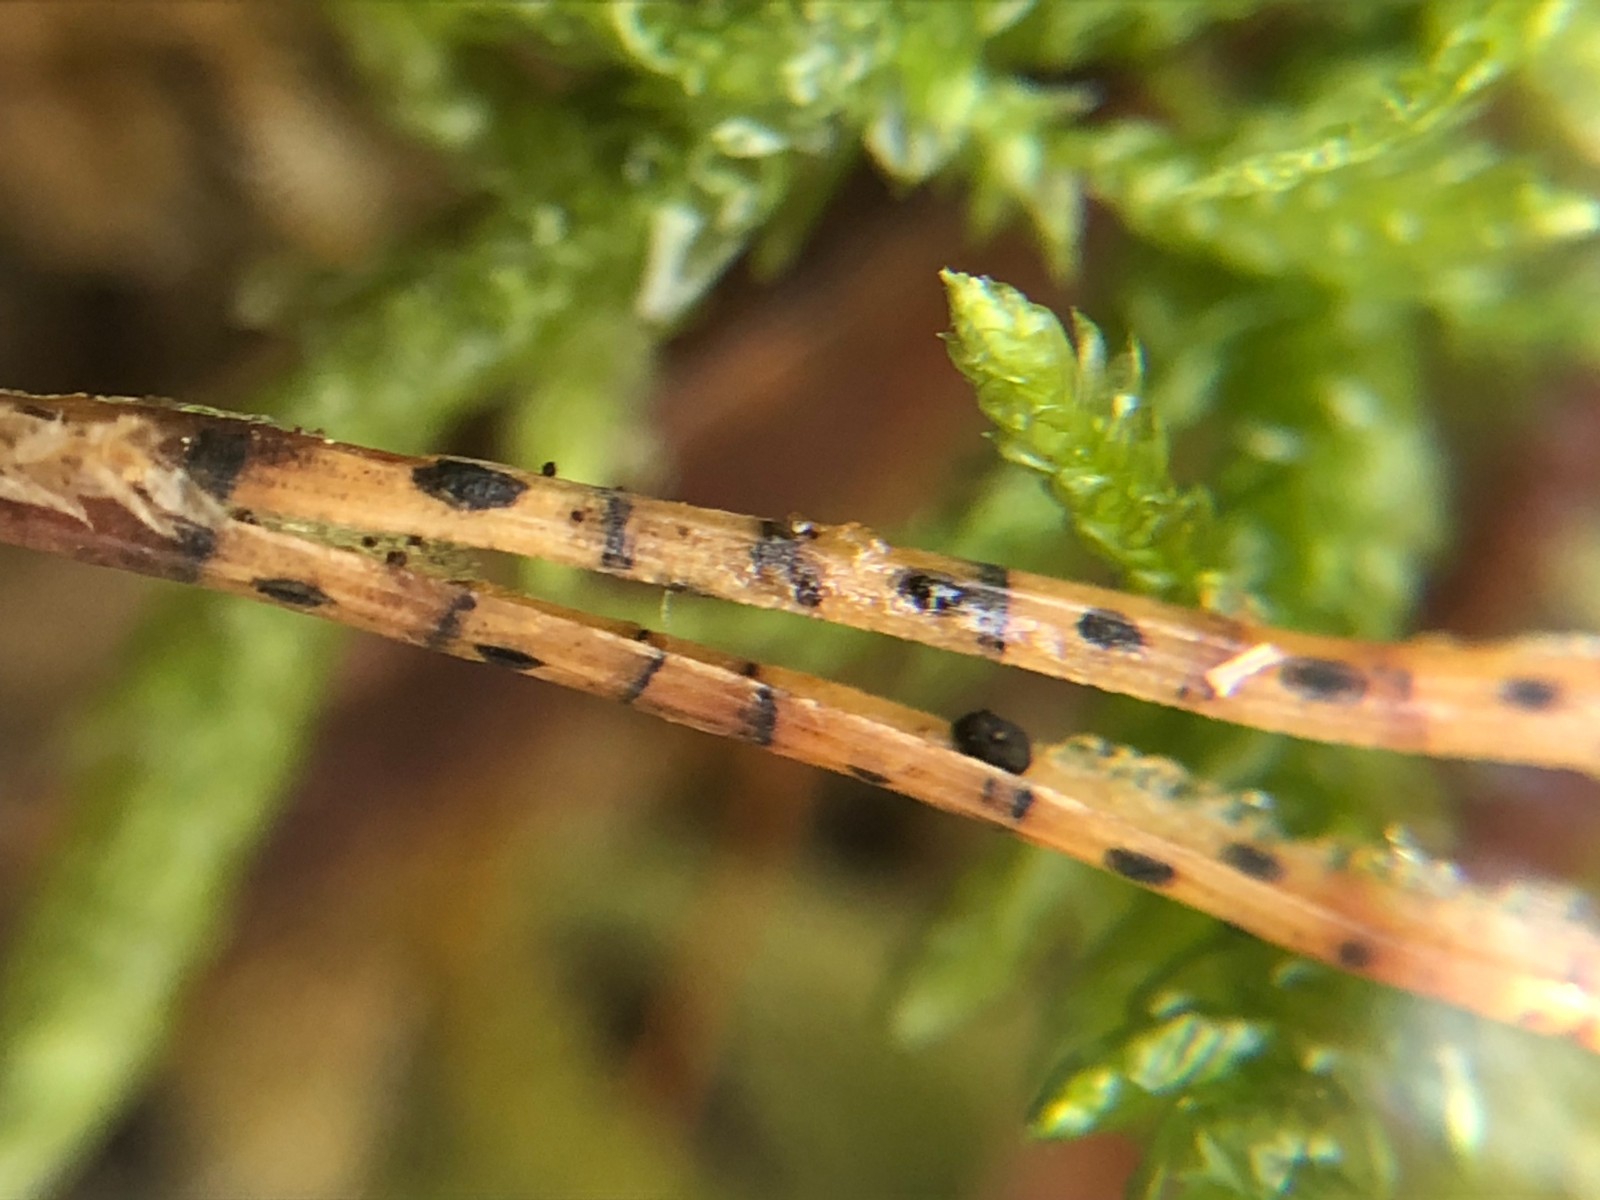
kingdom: Fungi
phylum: Ascomycota
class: Leotiomycetes
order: Rhytismatales
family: Rhytismataceae
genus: Lophodermium
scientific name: Lophodermium pinastri
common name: fyrre-fureplet
